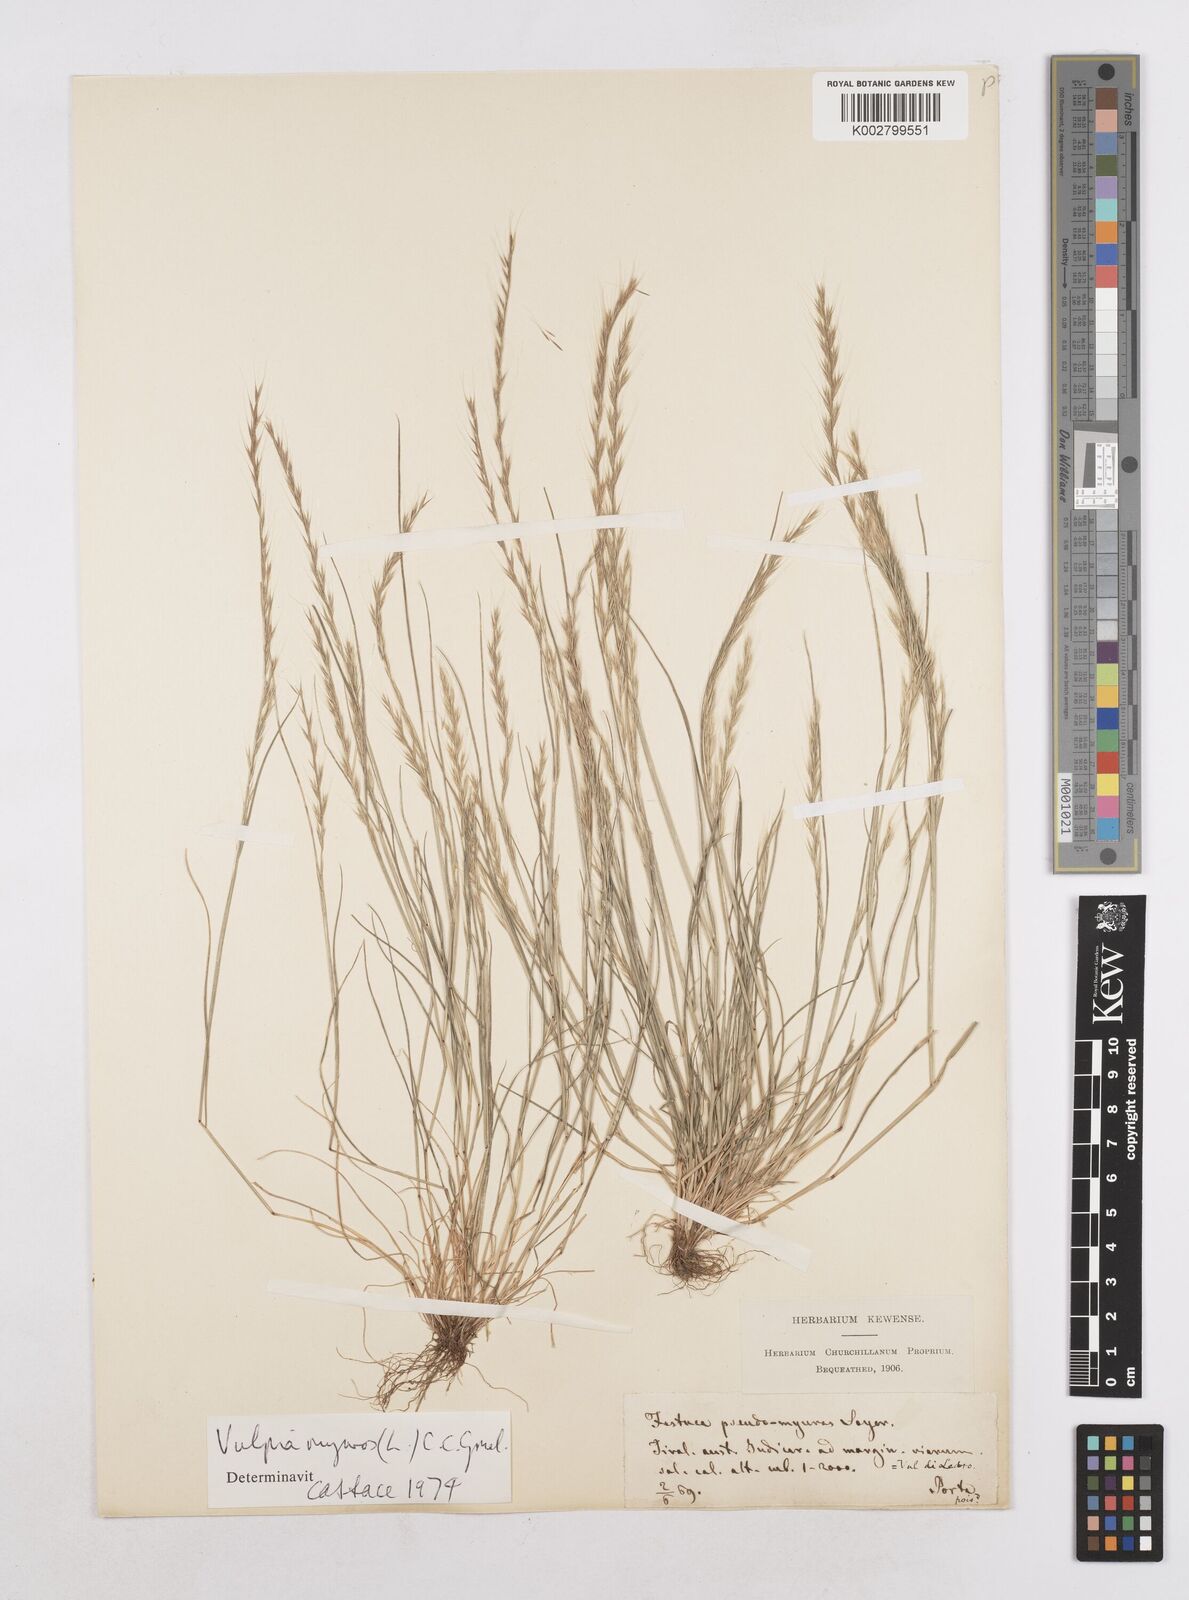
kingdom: Plantae
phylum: Tracheophyta
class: Liliopsida
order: Poales
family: Poaceae
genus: Festuca
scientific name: Festuca myuros
